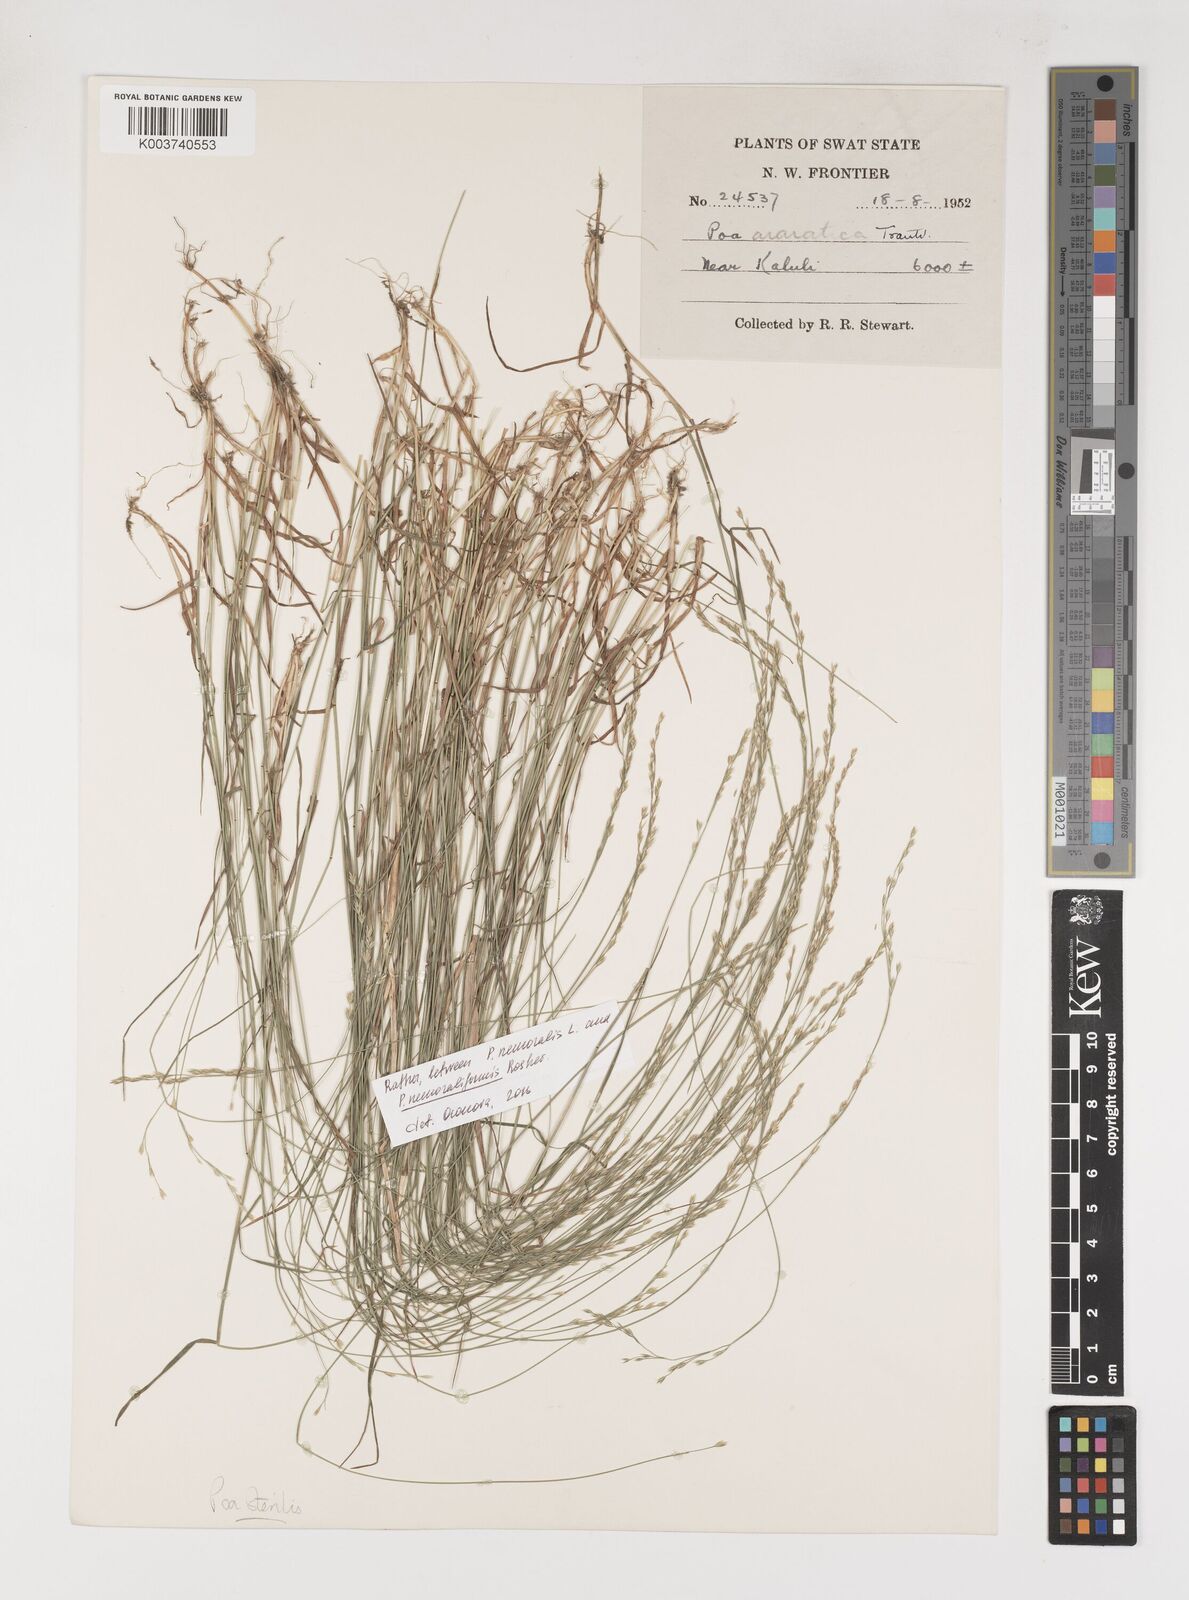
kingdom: Plantae
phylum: Tracheophyta
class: Liliopsida
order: Poales
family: Poaceae
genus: Poa
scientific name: Poa sterilis
